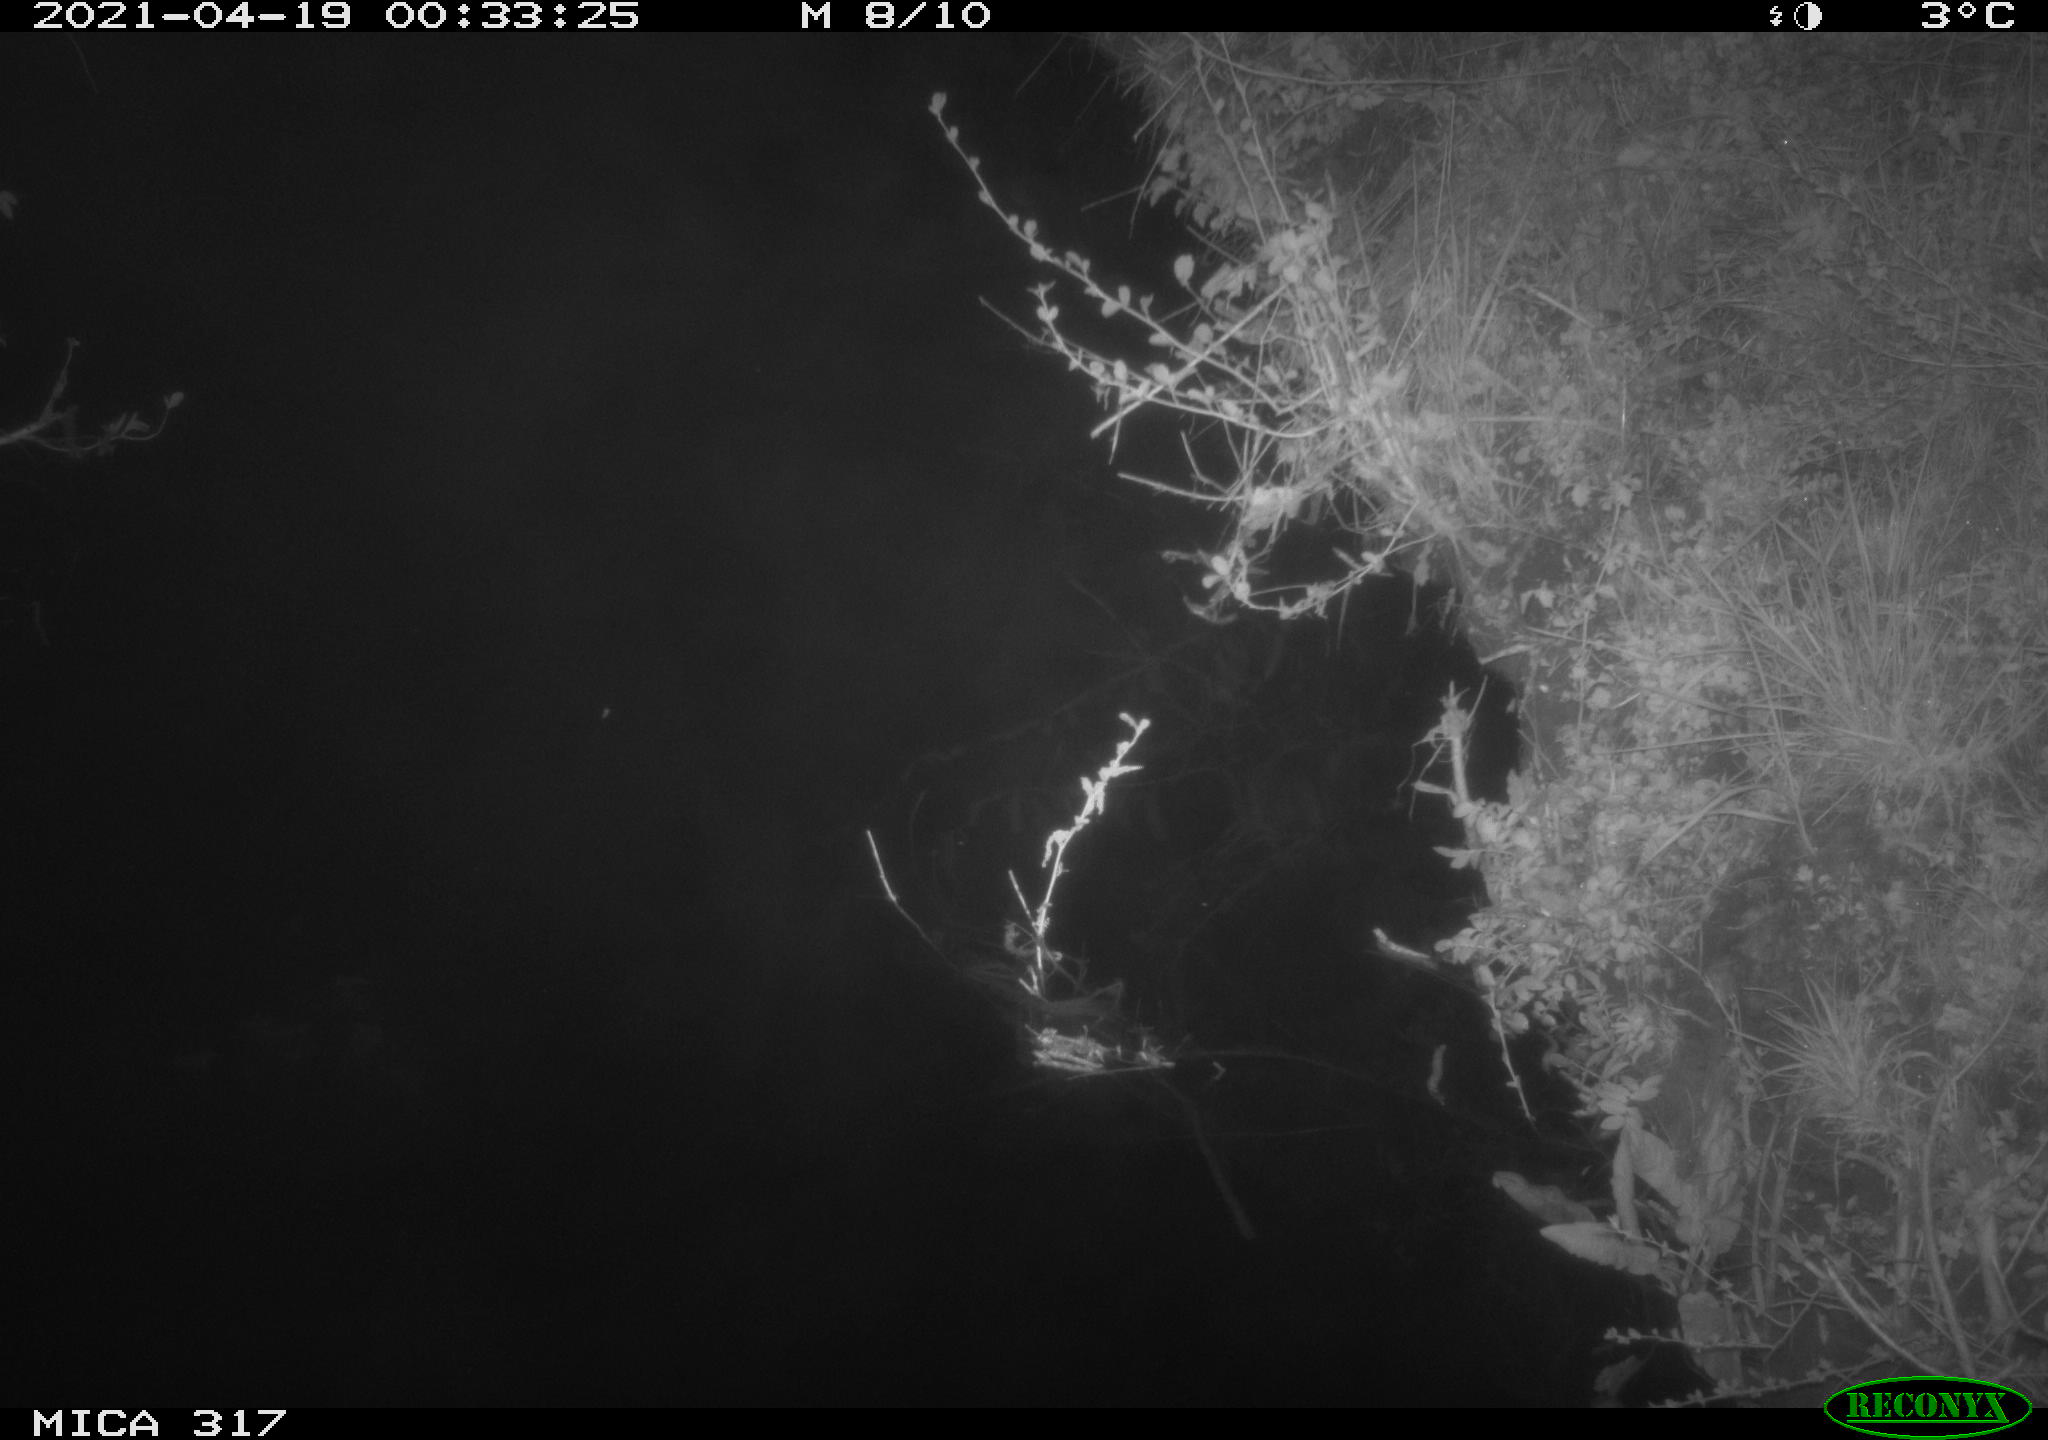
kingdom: Animalia
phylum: Chordata
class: Aves
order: Anseriformes
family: Anatidae
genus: Anas
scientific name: Anas platyrhynchos
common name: Mallard
